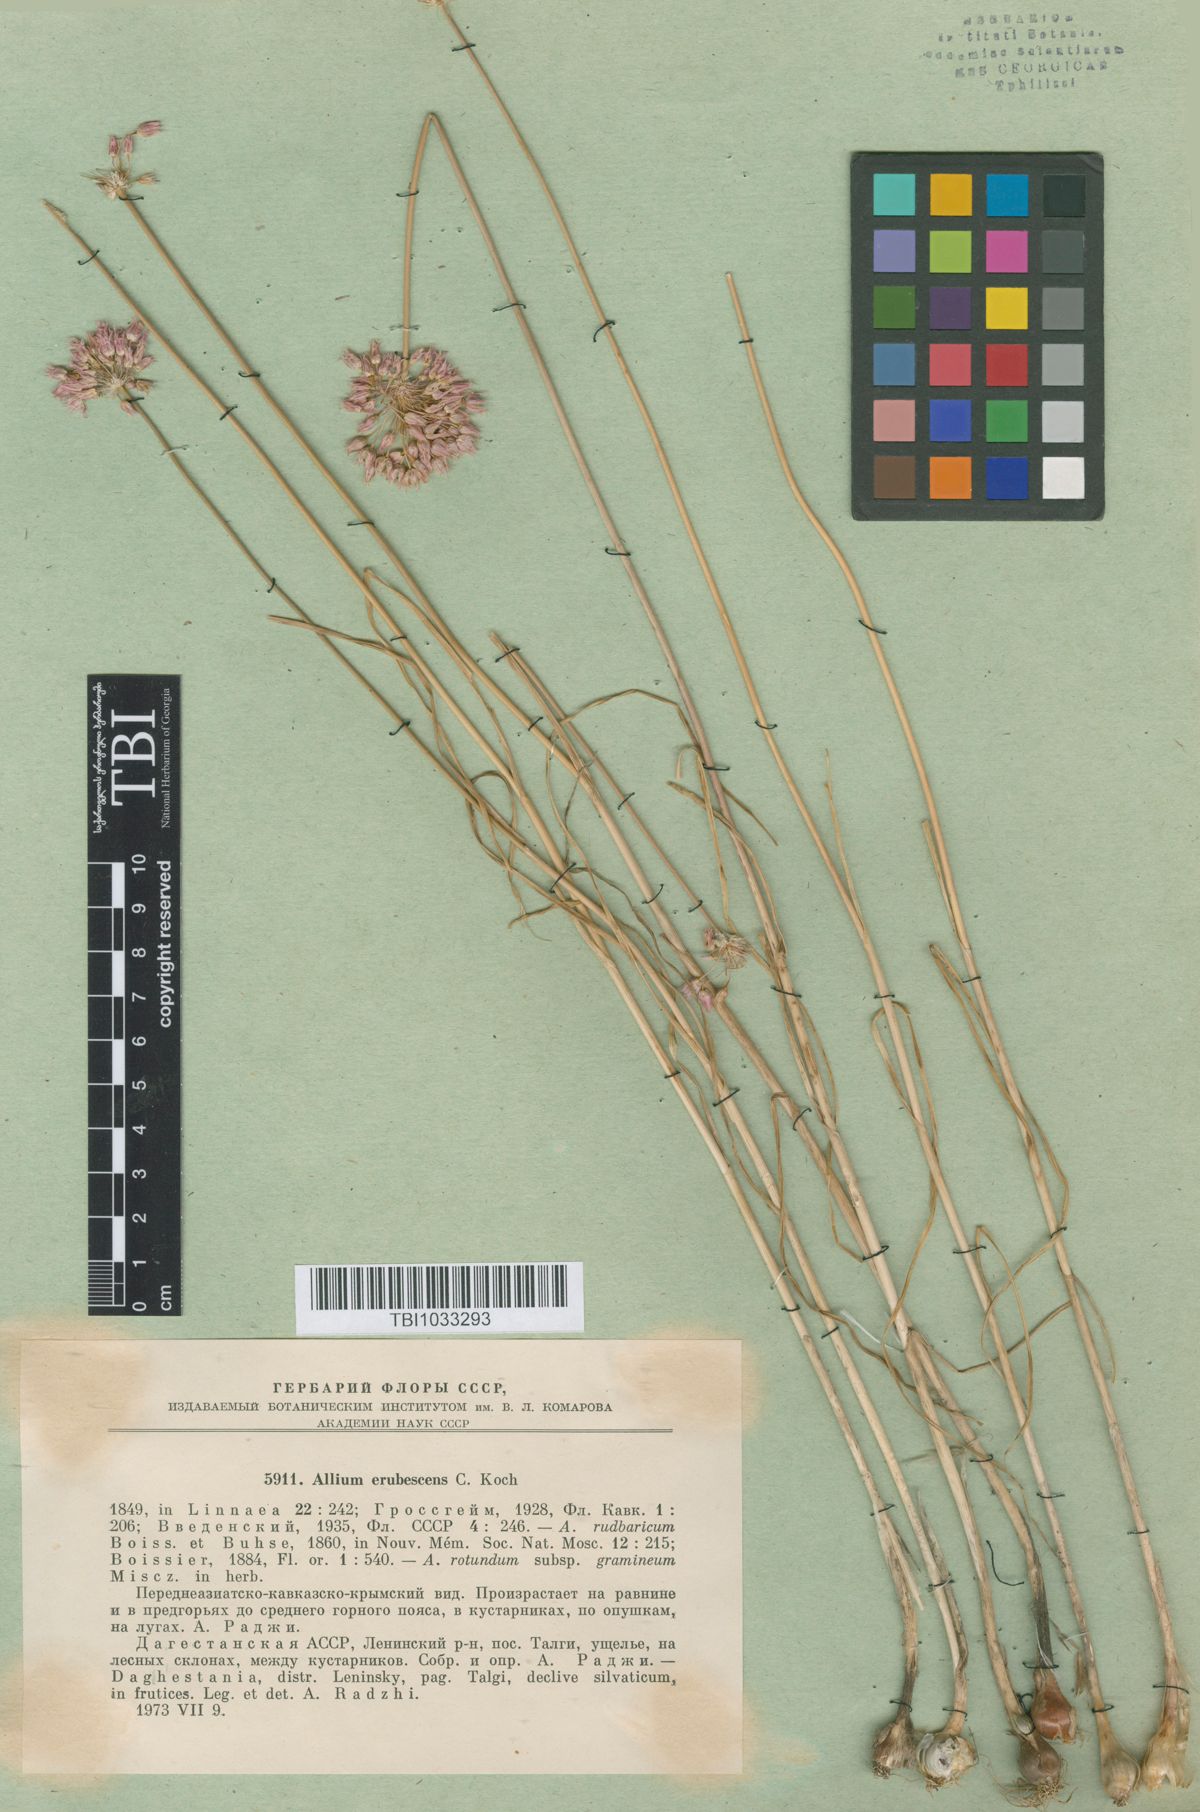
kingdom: Plantae
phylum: Tracheophyta
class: Liliopsida
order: Asparagales
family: Amaryllidaceae
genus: Allium
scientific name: Allium erubescens
